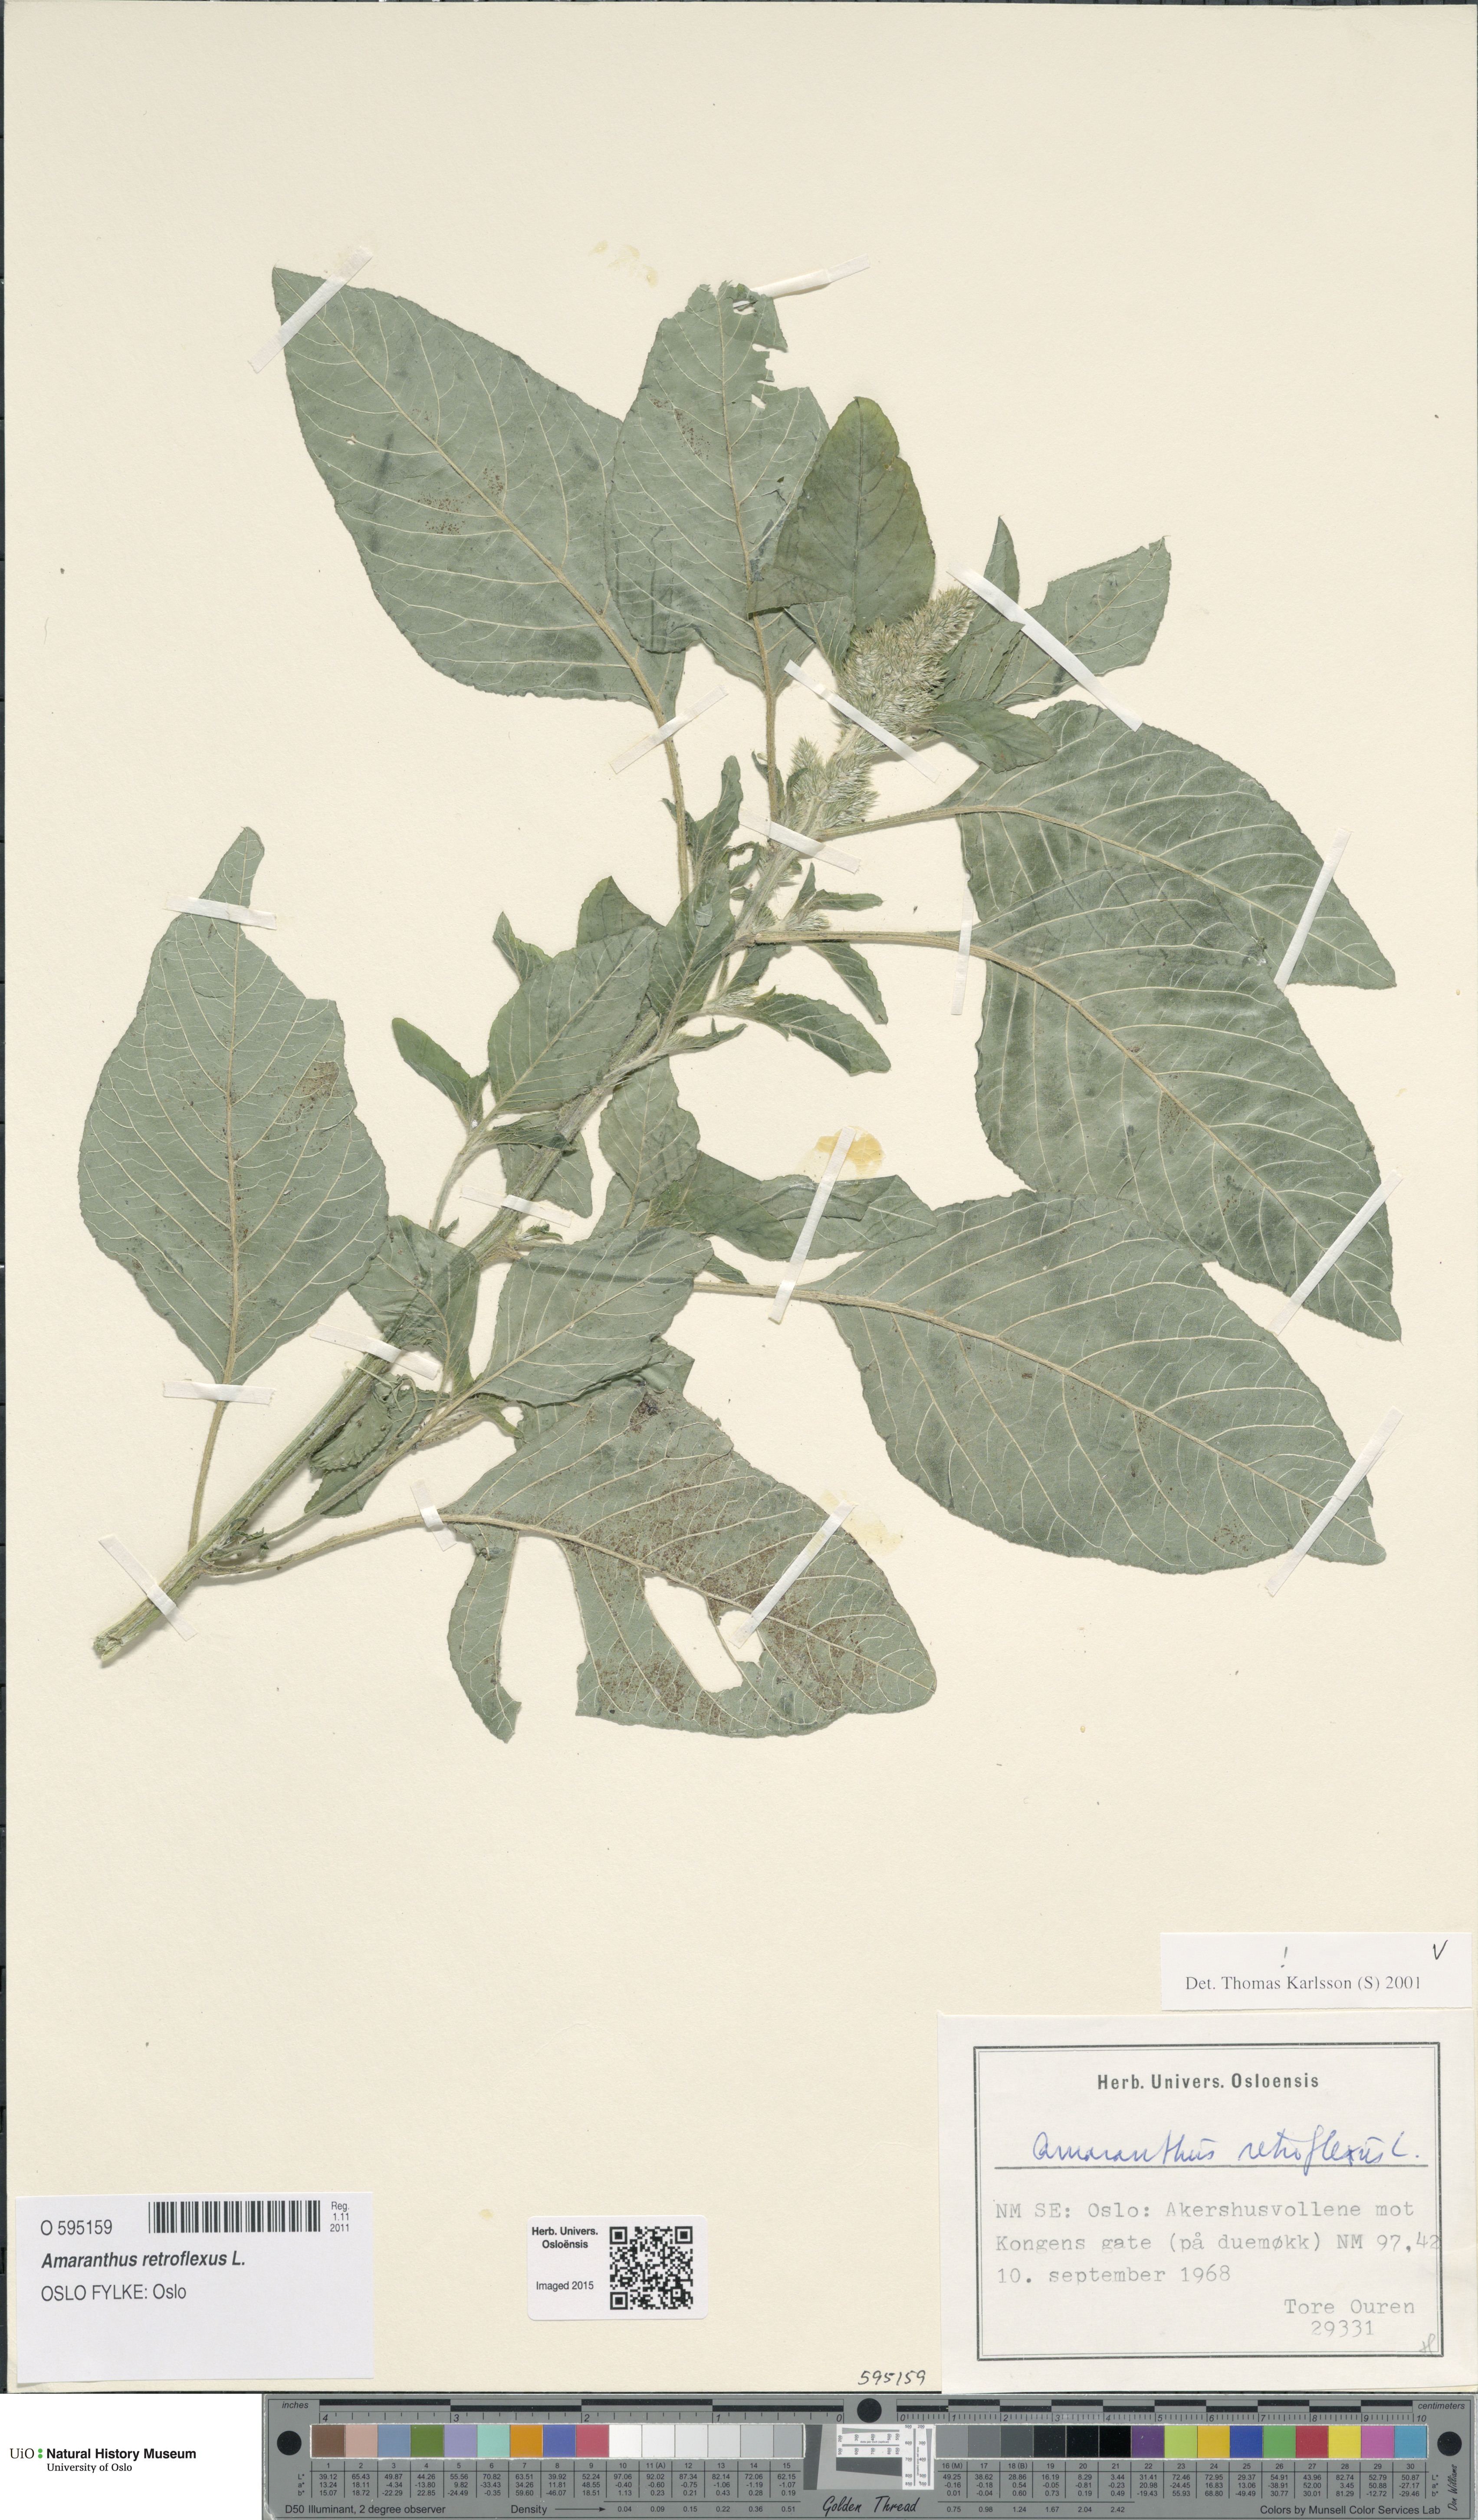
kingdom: Plantae
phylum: Tracheophyta
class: Magnoliopsida
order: Caryophyllales
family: Amaranthaceae
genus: Amaranthus
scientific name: Amaranthus retroflexus
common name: Redroot amaranth
